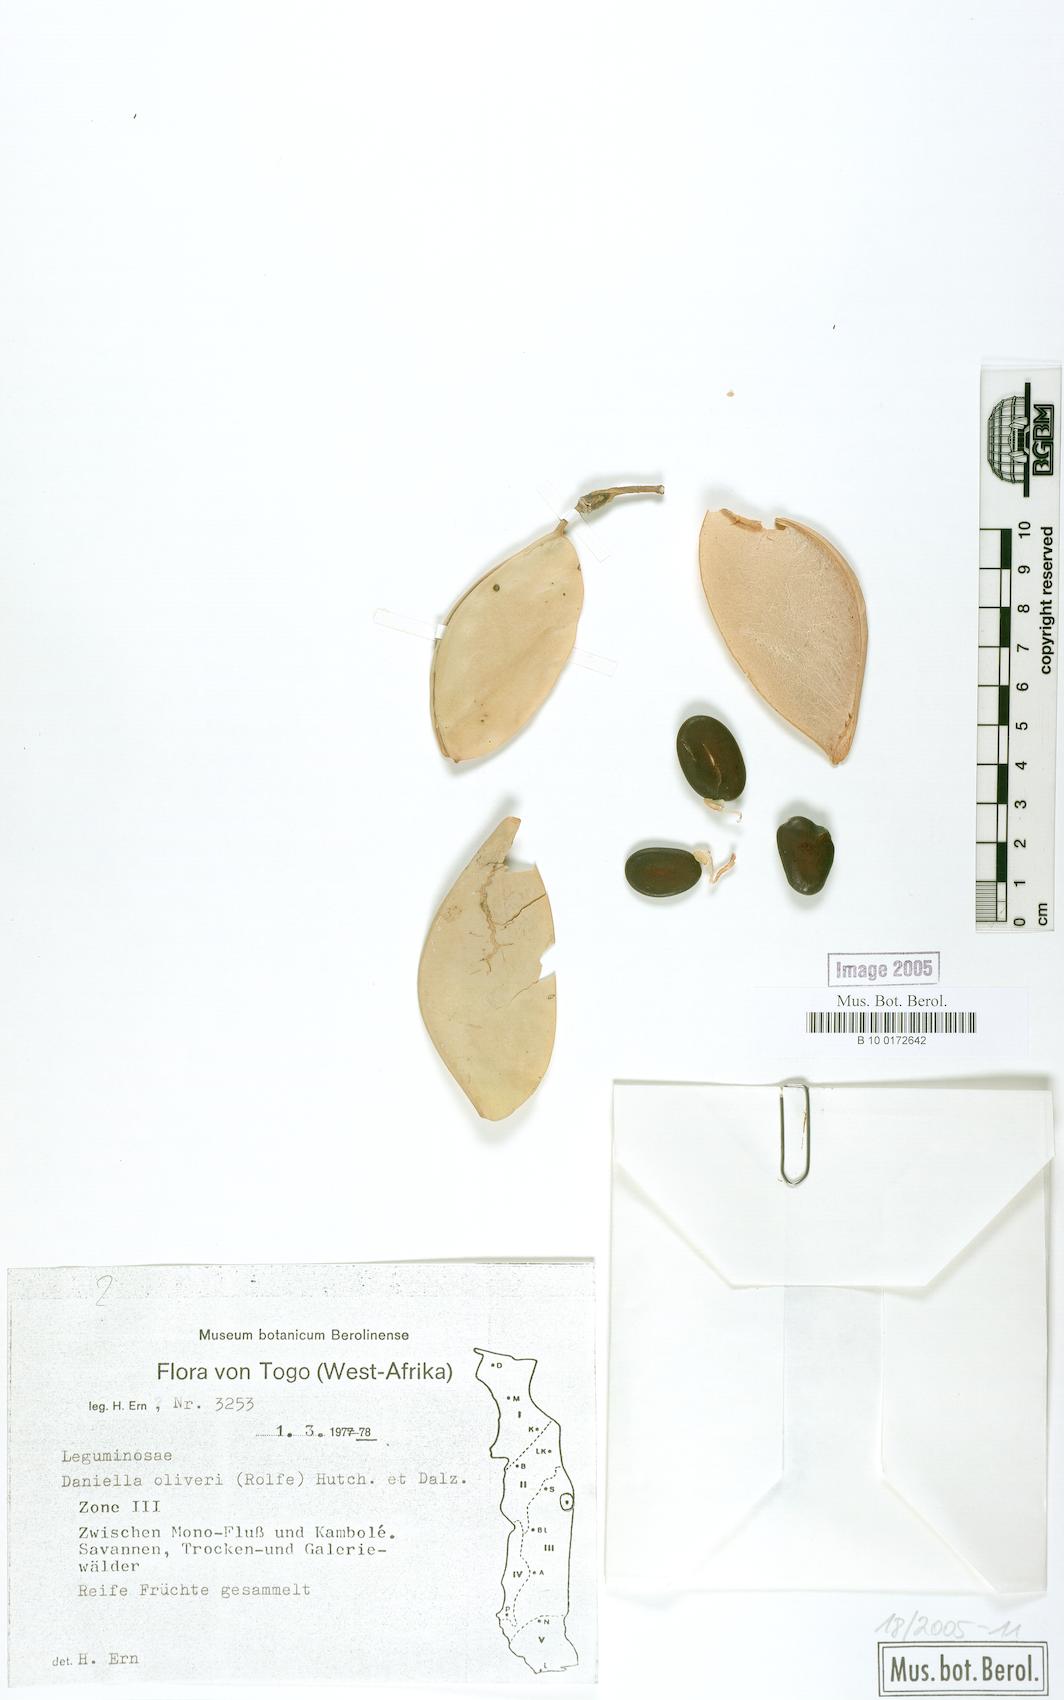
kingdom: Plantae
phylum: Tracheophyta
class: Magnoliopsida
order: Fabales
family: Fabaceae
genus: Daniellia
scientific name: Daniellia oliveri
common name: African copaiba balsamtree
